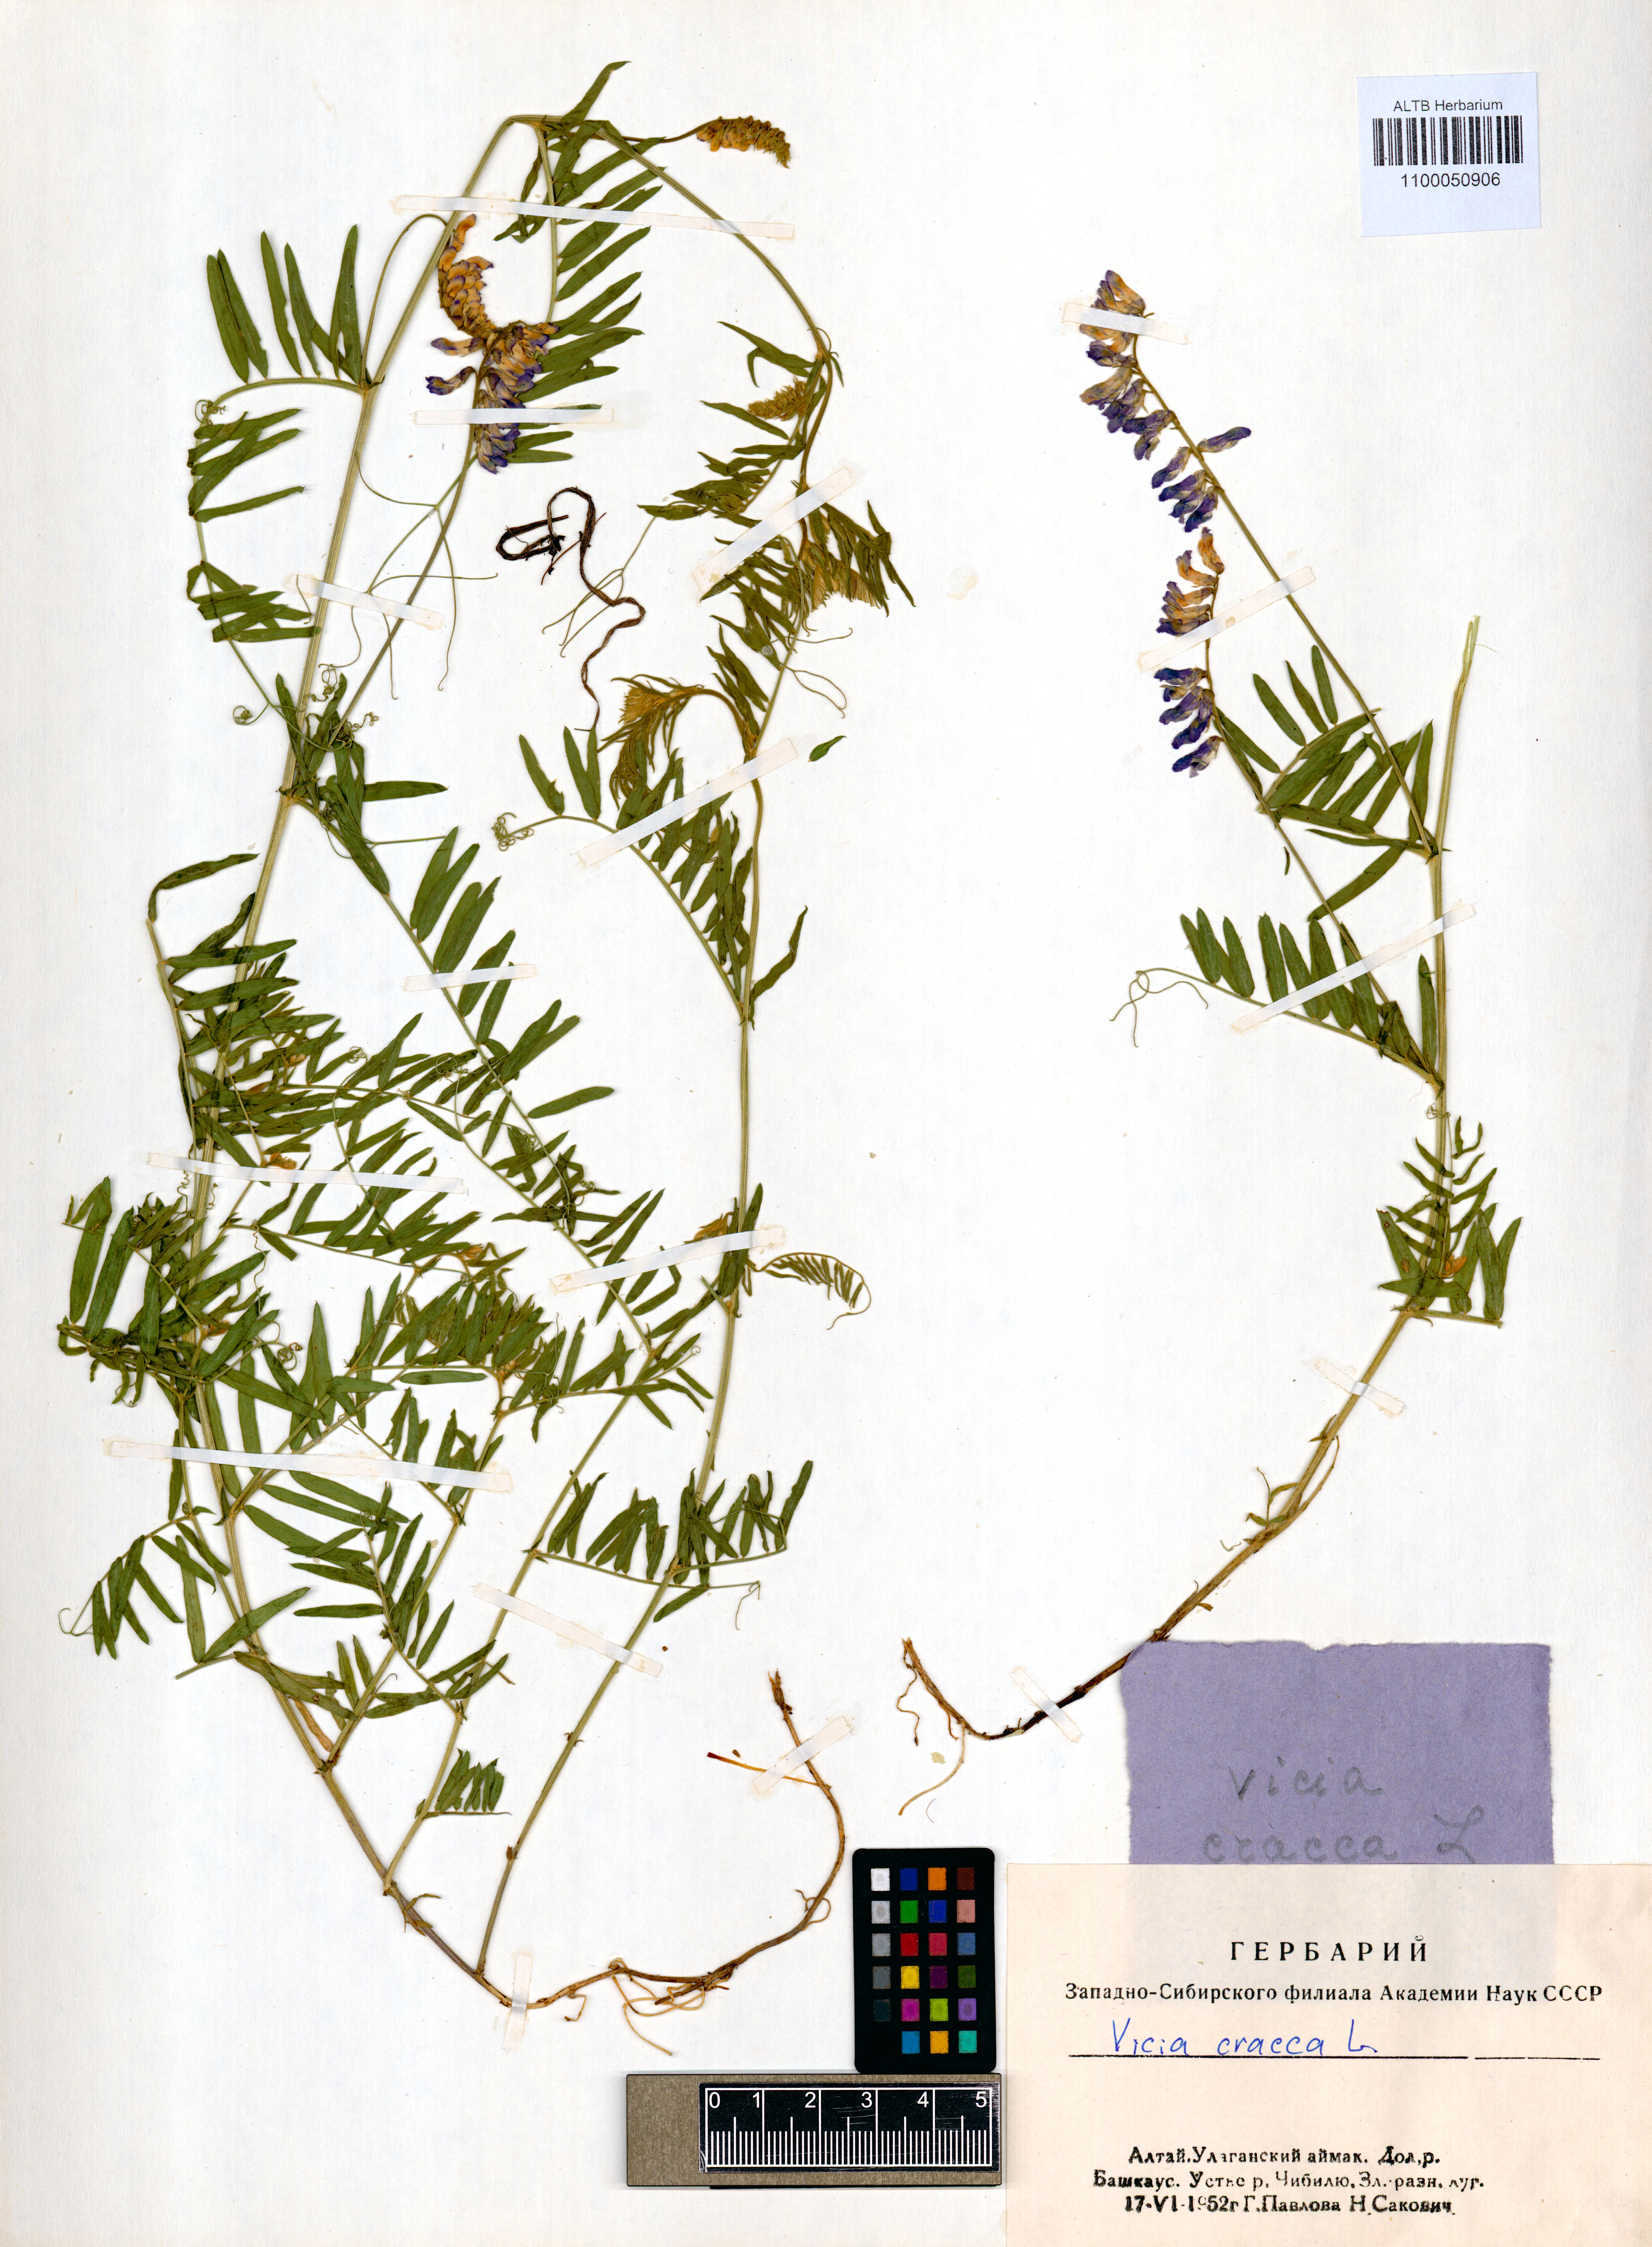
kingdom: Plantae
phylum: Tracheophyta
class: Magnoliopsida
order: Fabales
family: Fabaceae
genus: Vicia
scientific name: Vicia cracca
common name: Bird vetch
